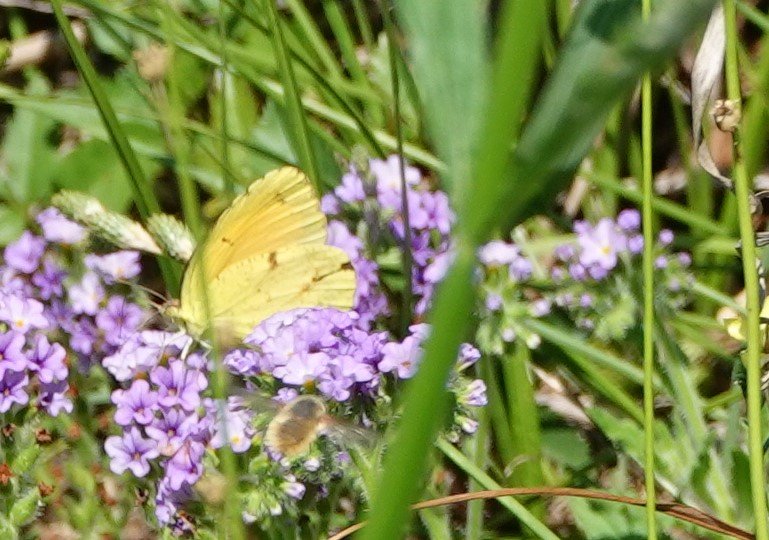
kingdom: Animalia
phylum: Arthropoda
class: Insecta
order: Lepidoptera
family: Pieridae
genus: Abaeis
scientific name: Abaeis nicippe
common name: Sleepy Orange
